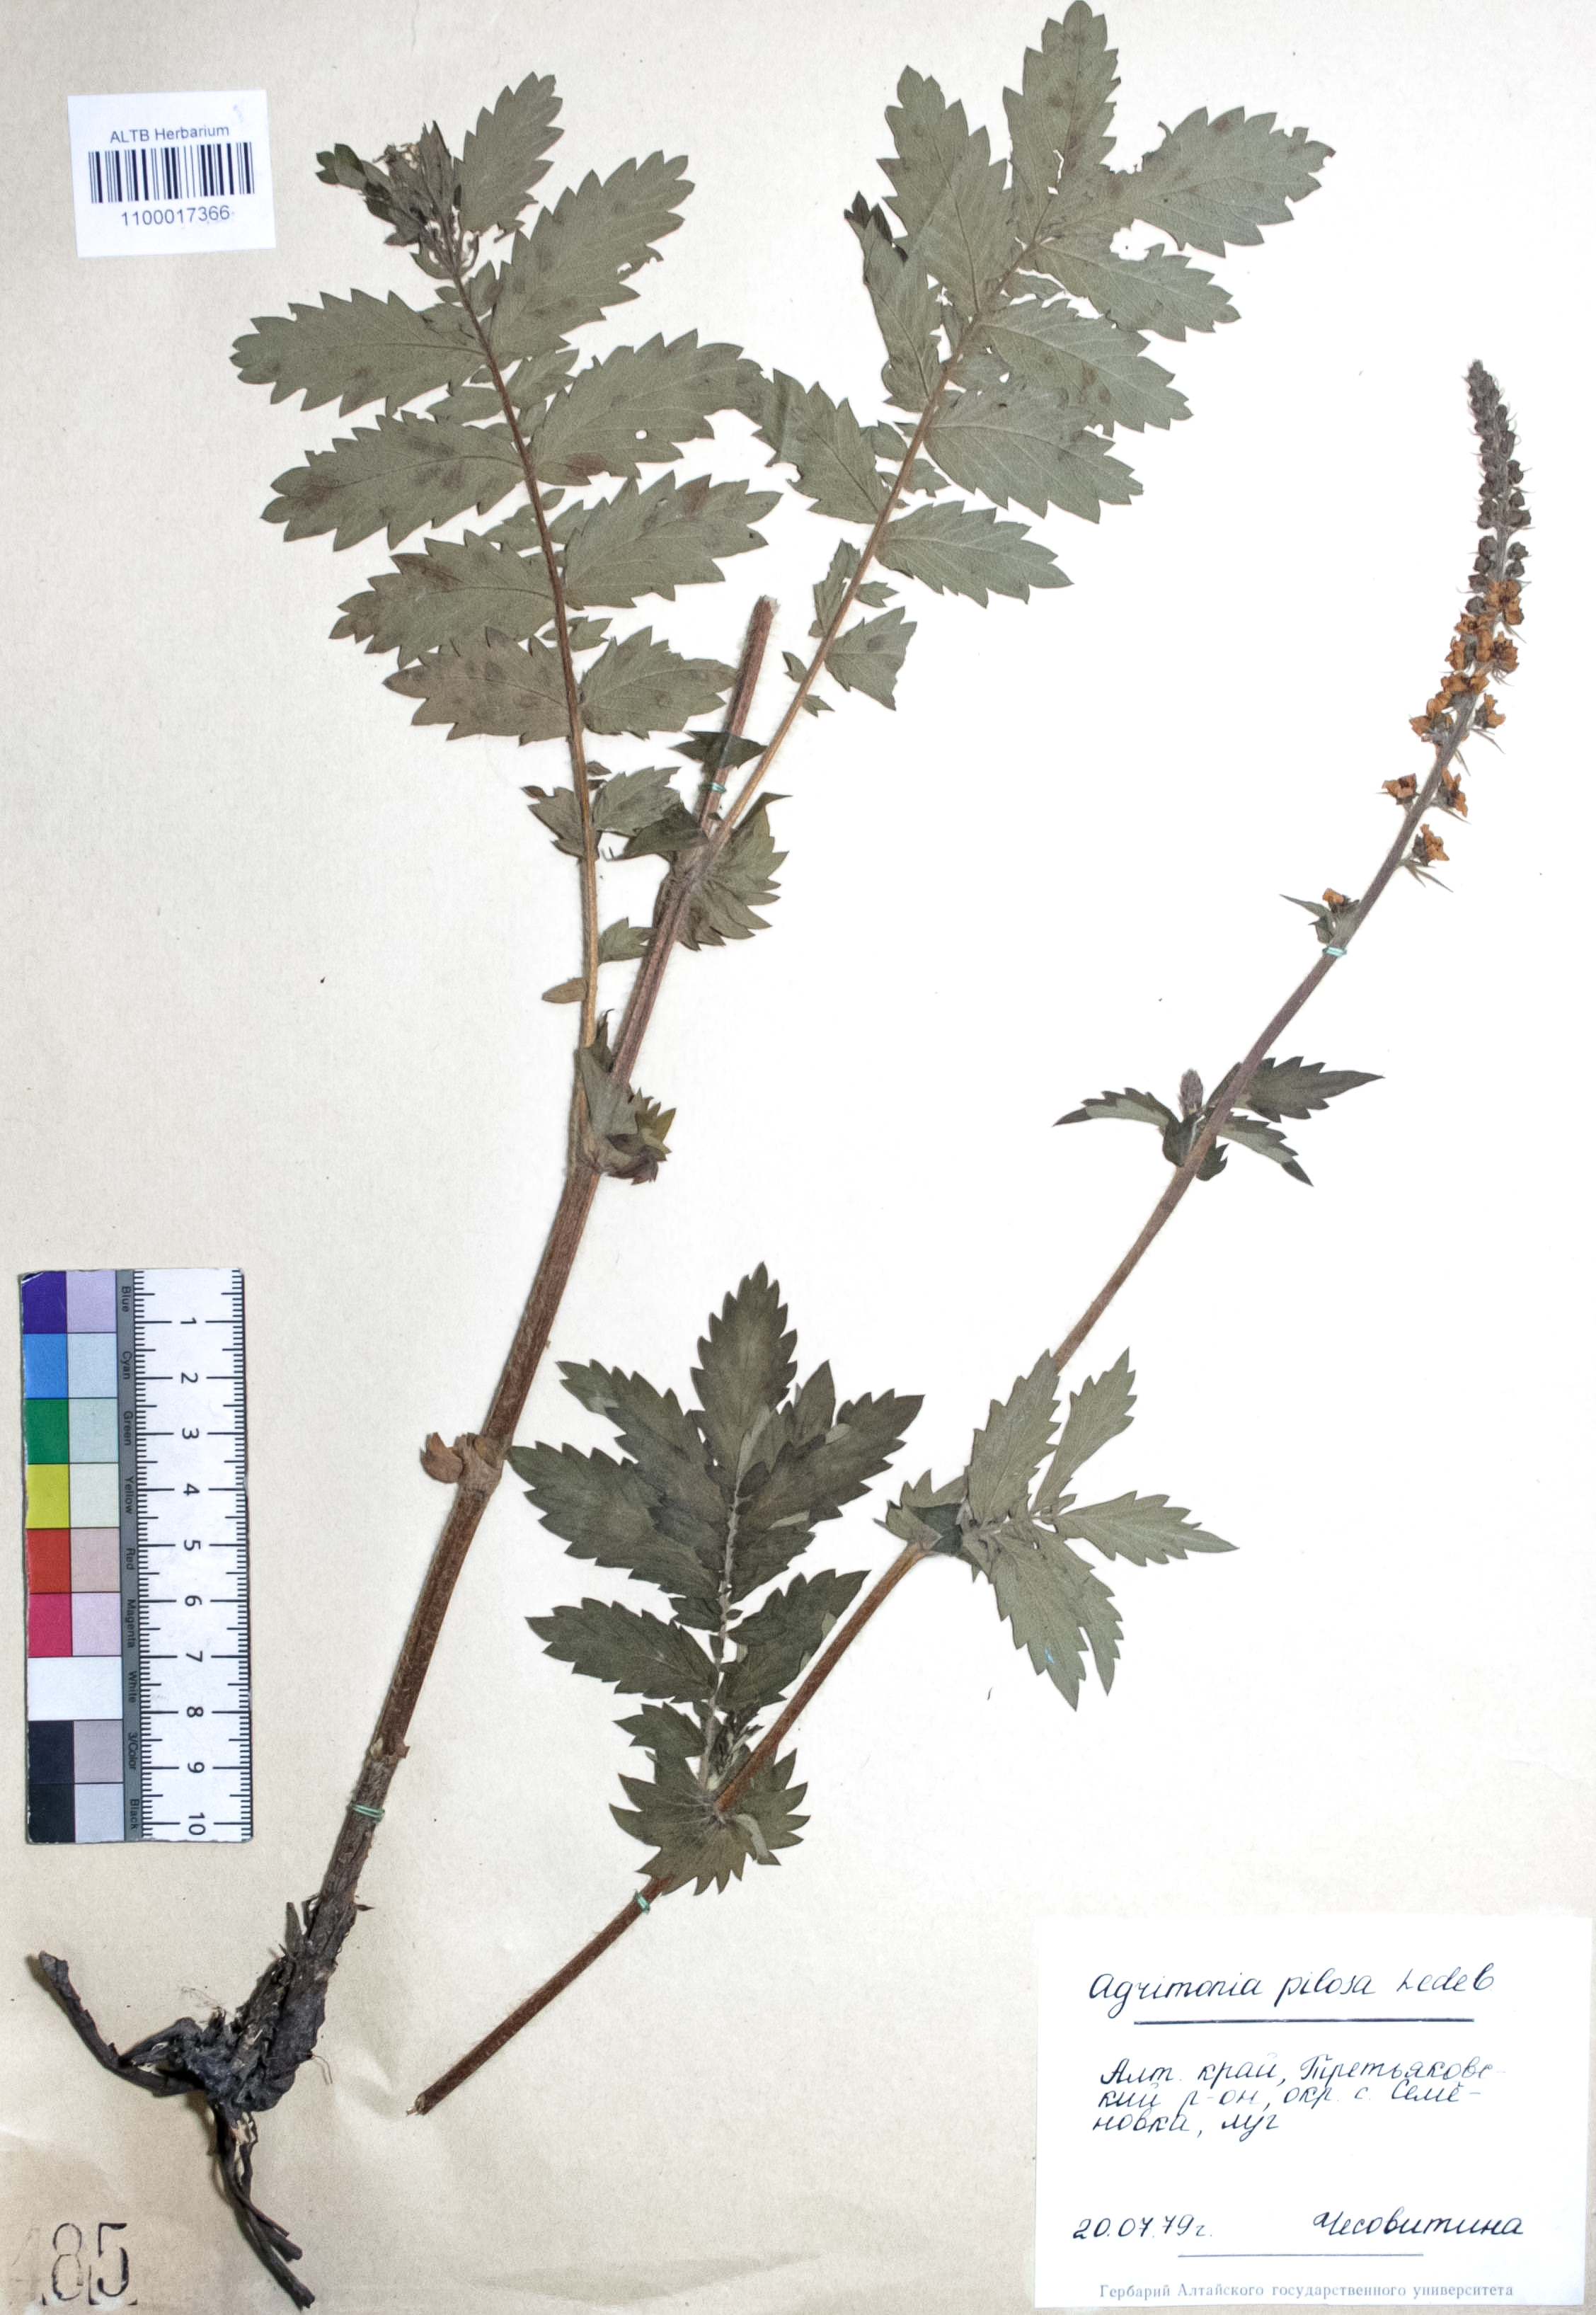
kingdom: Plantae
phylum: Tracheophyta
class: Magnoliopsida
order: Rosales
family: Rosaceae
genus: Agrimonia
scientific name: Agrimonia pilosa
